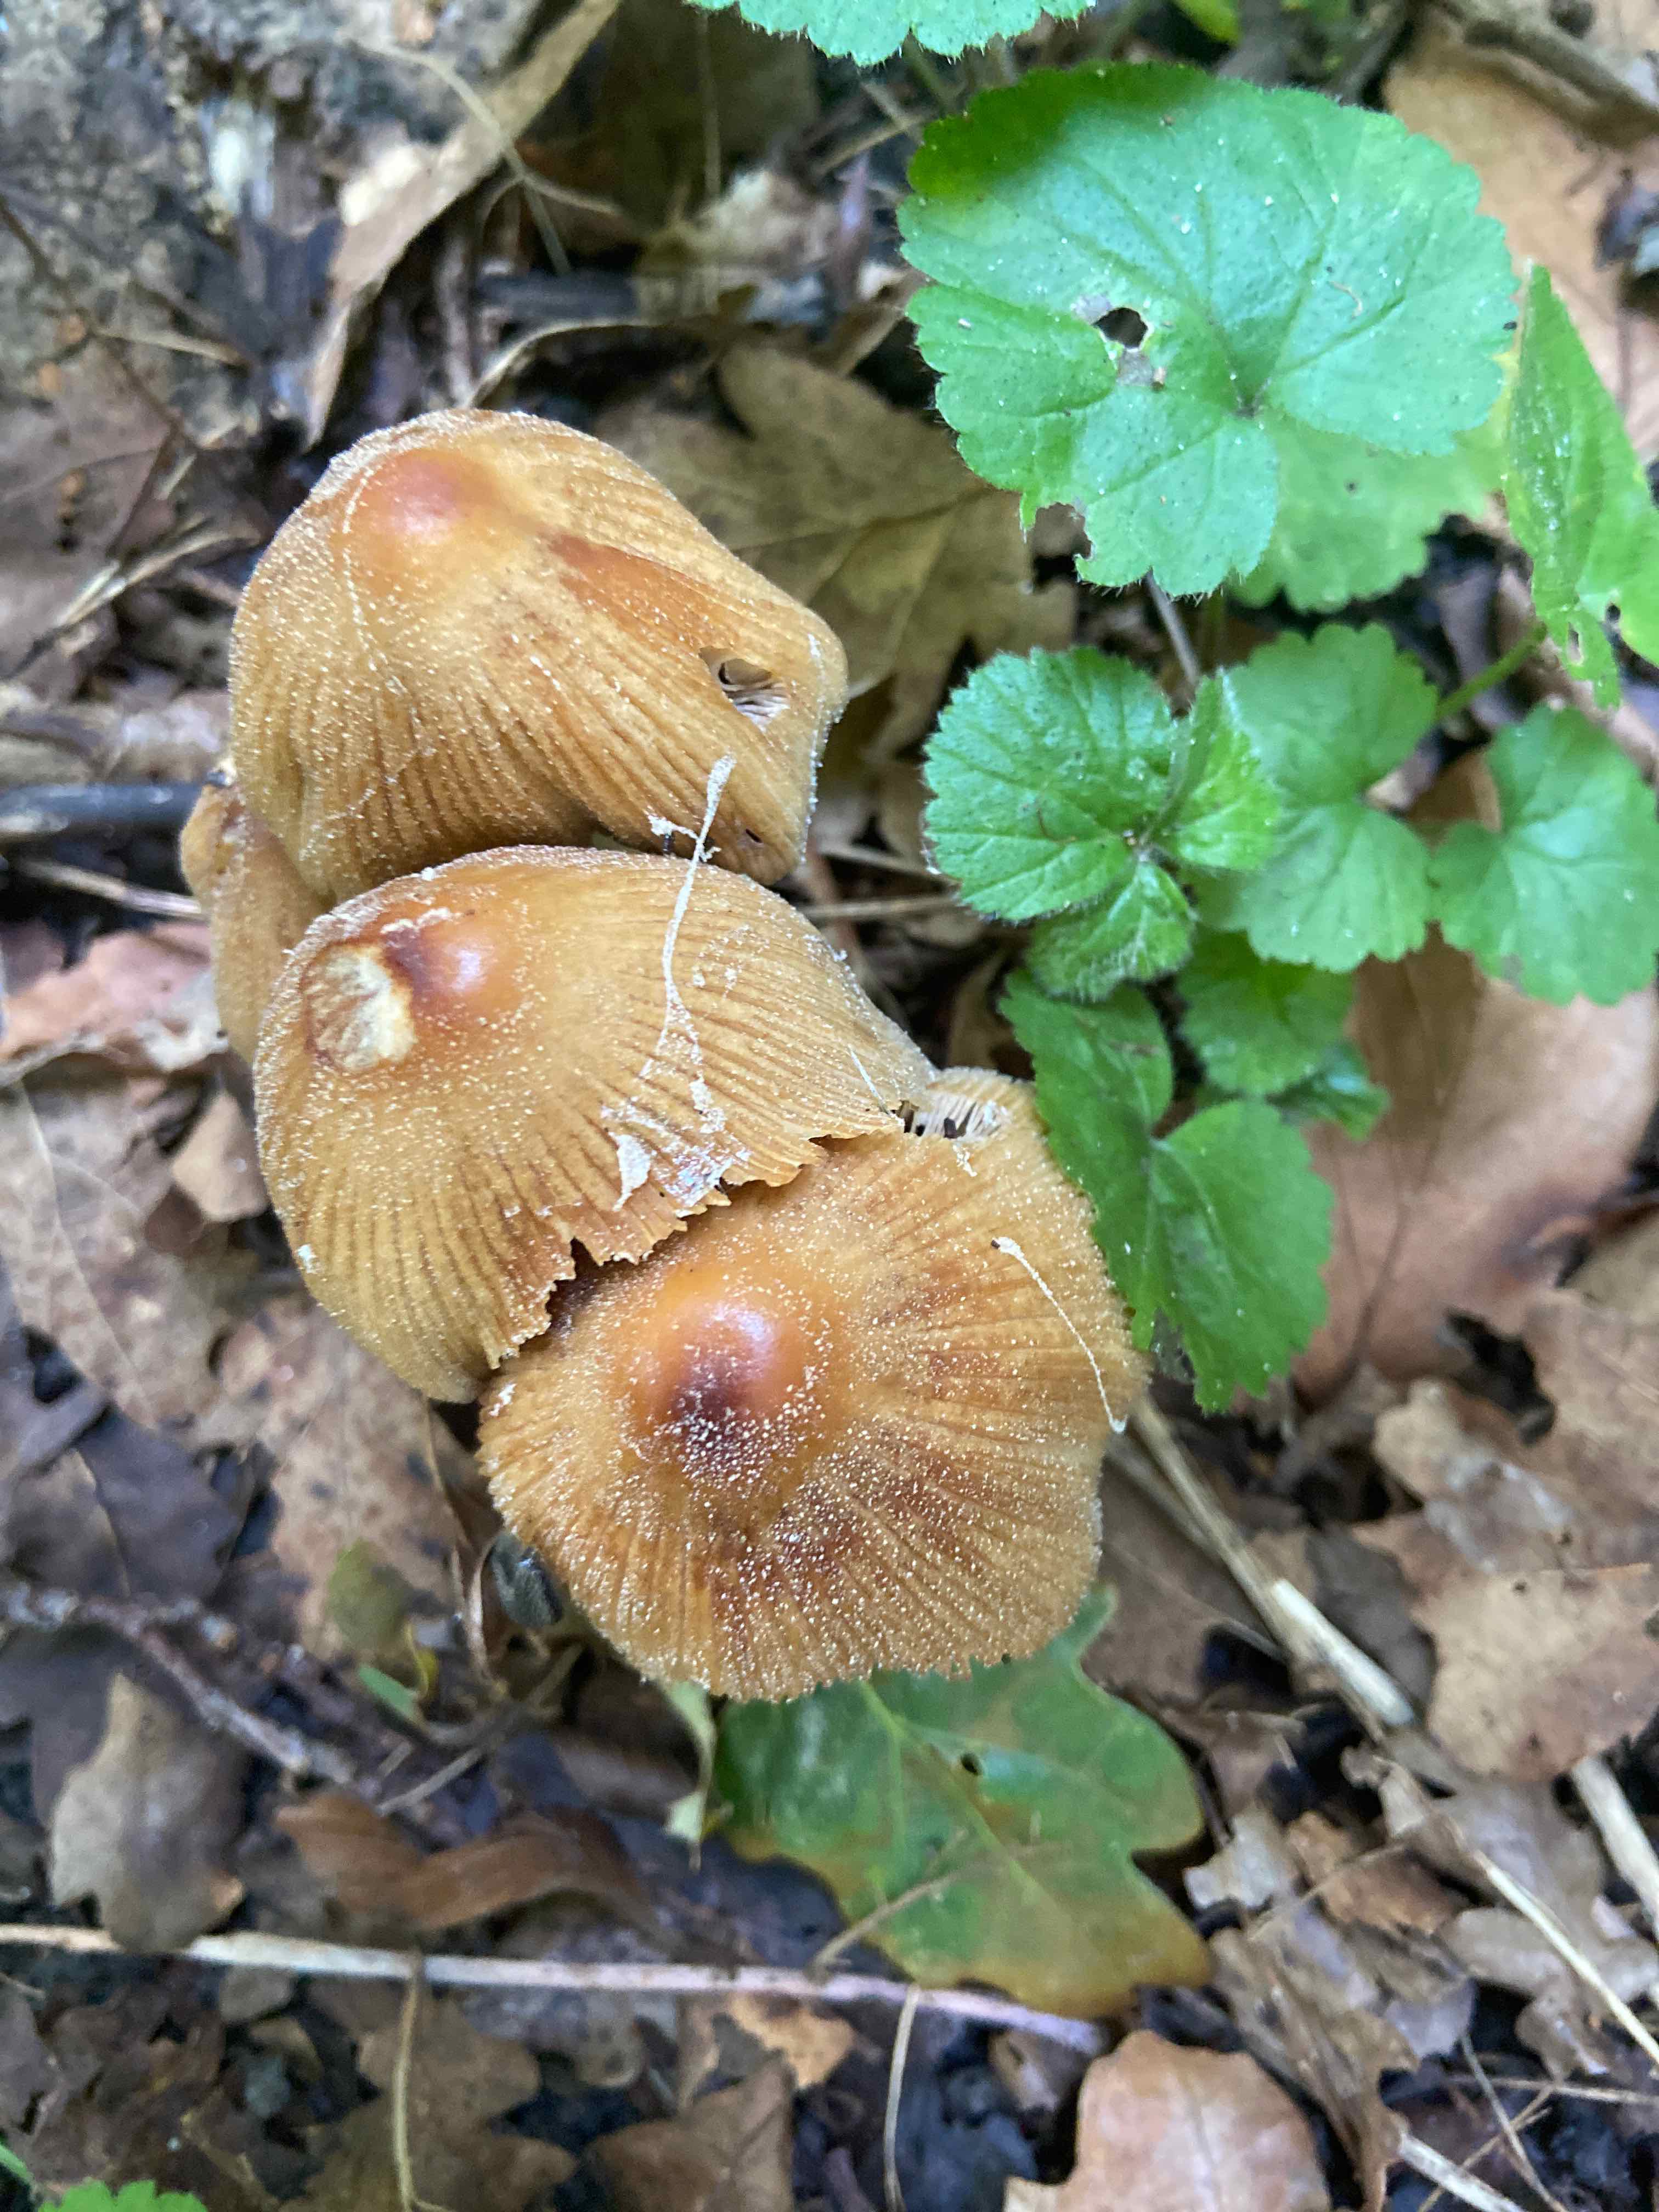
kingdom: Fungi
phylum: Basidiomycota
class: Agaricomycetes
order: Agaricales
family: Psathyrellaceae
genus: Coprinellus
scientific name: Coprinellus micaceus
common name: glimmer-blækhat
